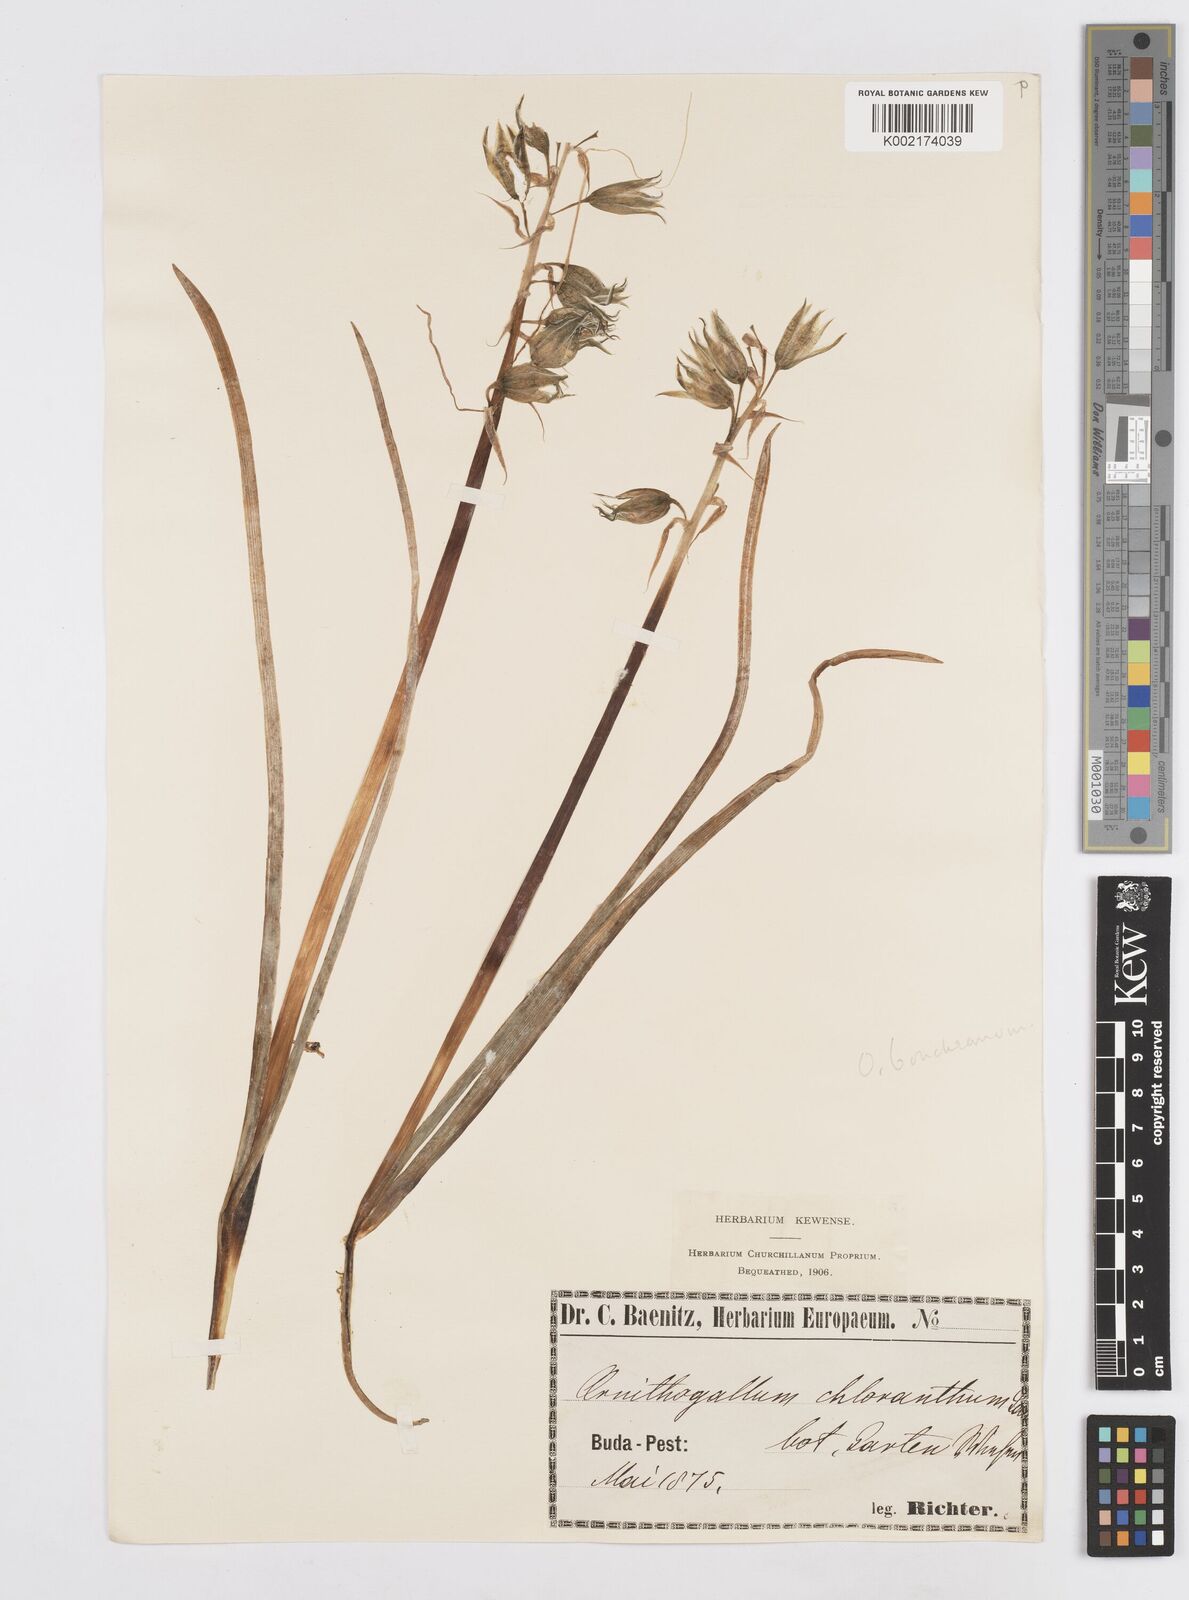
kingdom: Plantae
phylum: Tracheophyta
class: Liliopsida
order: Asparagales
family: Asparagaceae
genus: Ornithogalum
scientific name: Ornithogalum boucheanum
